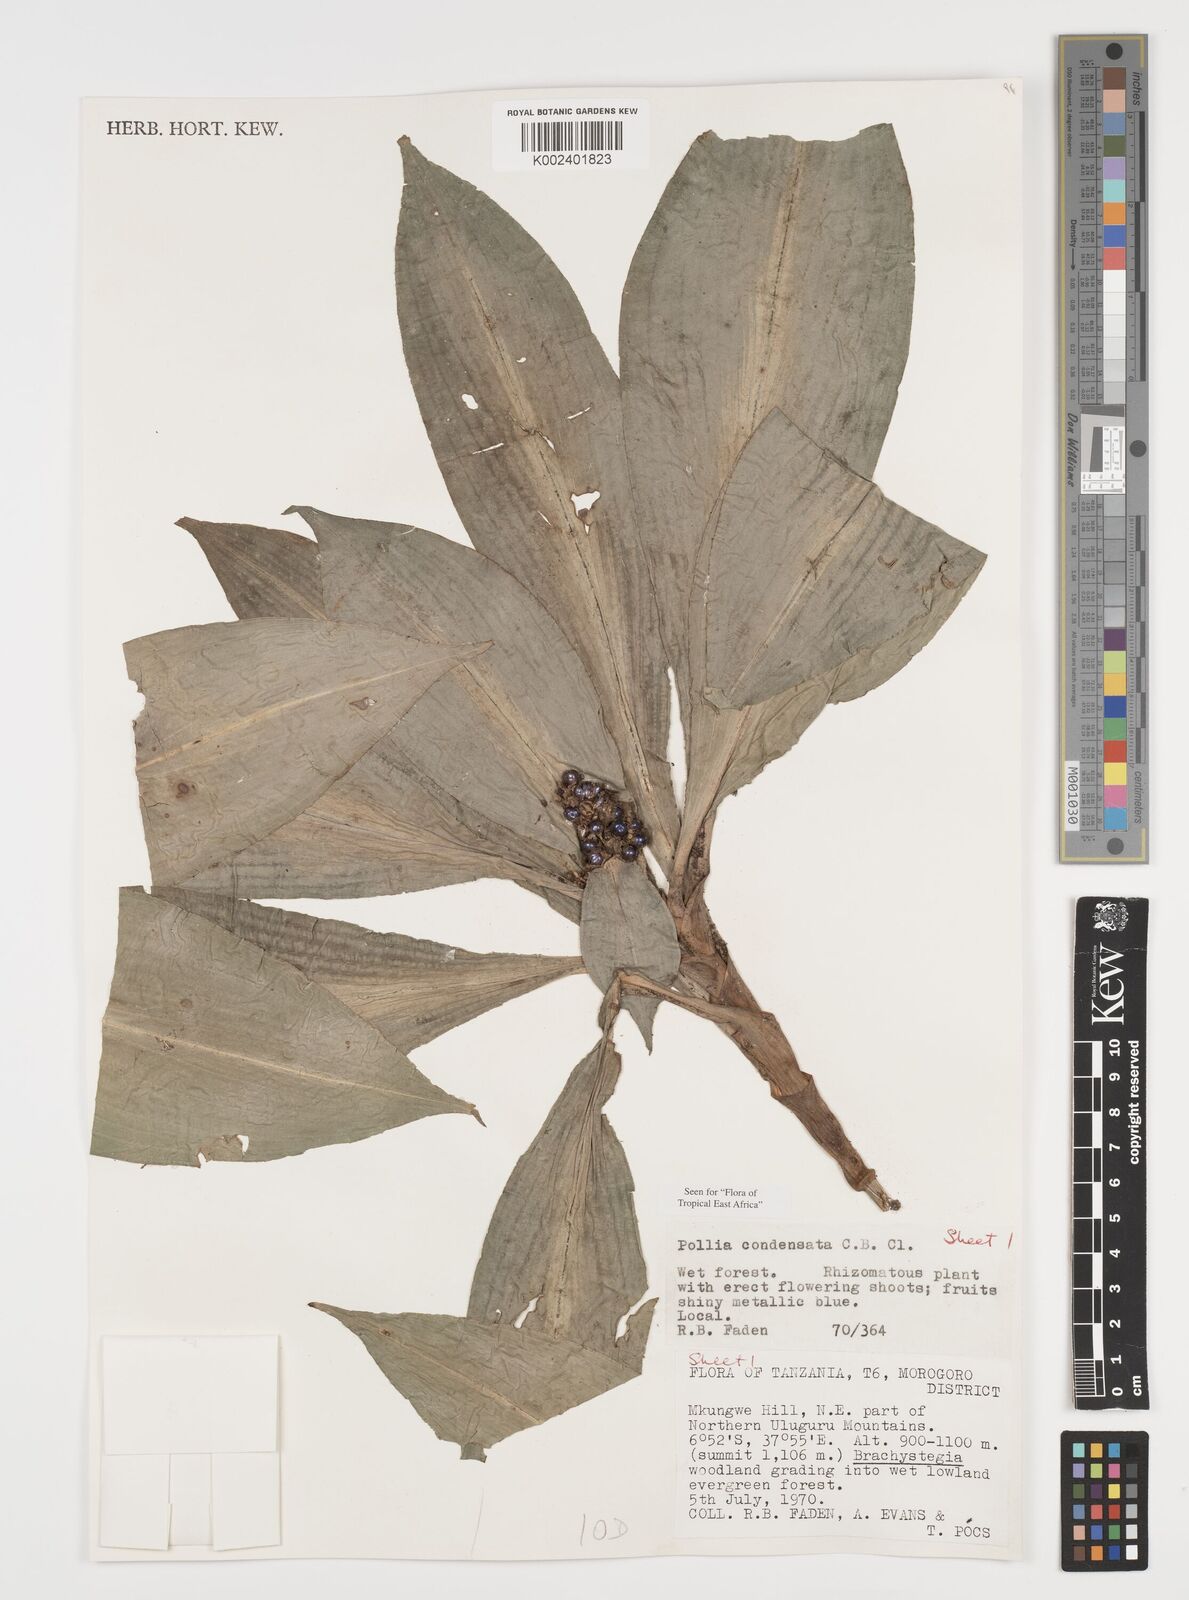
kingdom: Plantae
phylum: Tracheophyta
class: Liliopsida
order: Commelinales
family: Commelinaceae
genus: Pollia
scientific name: Pollia condensata
